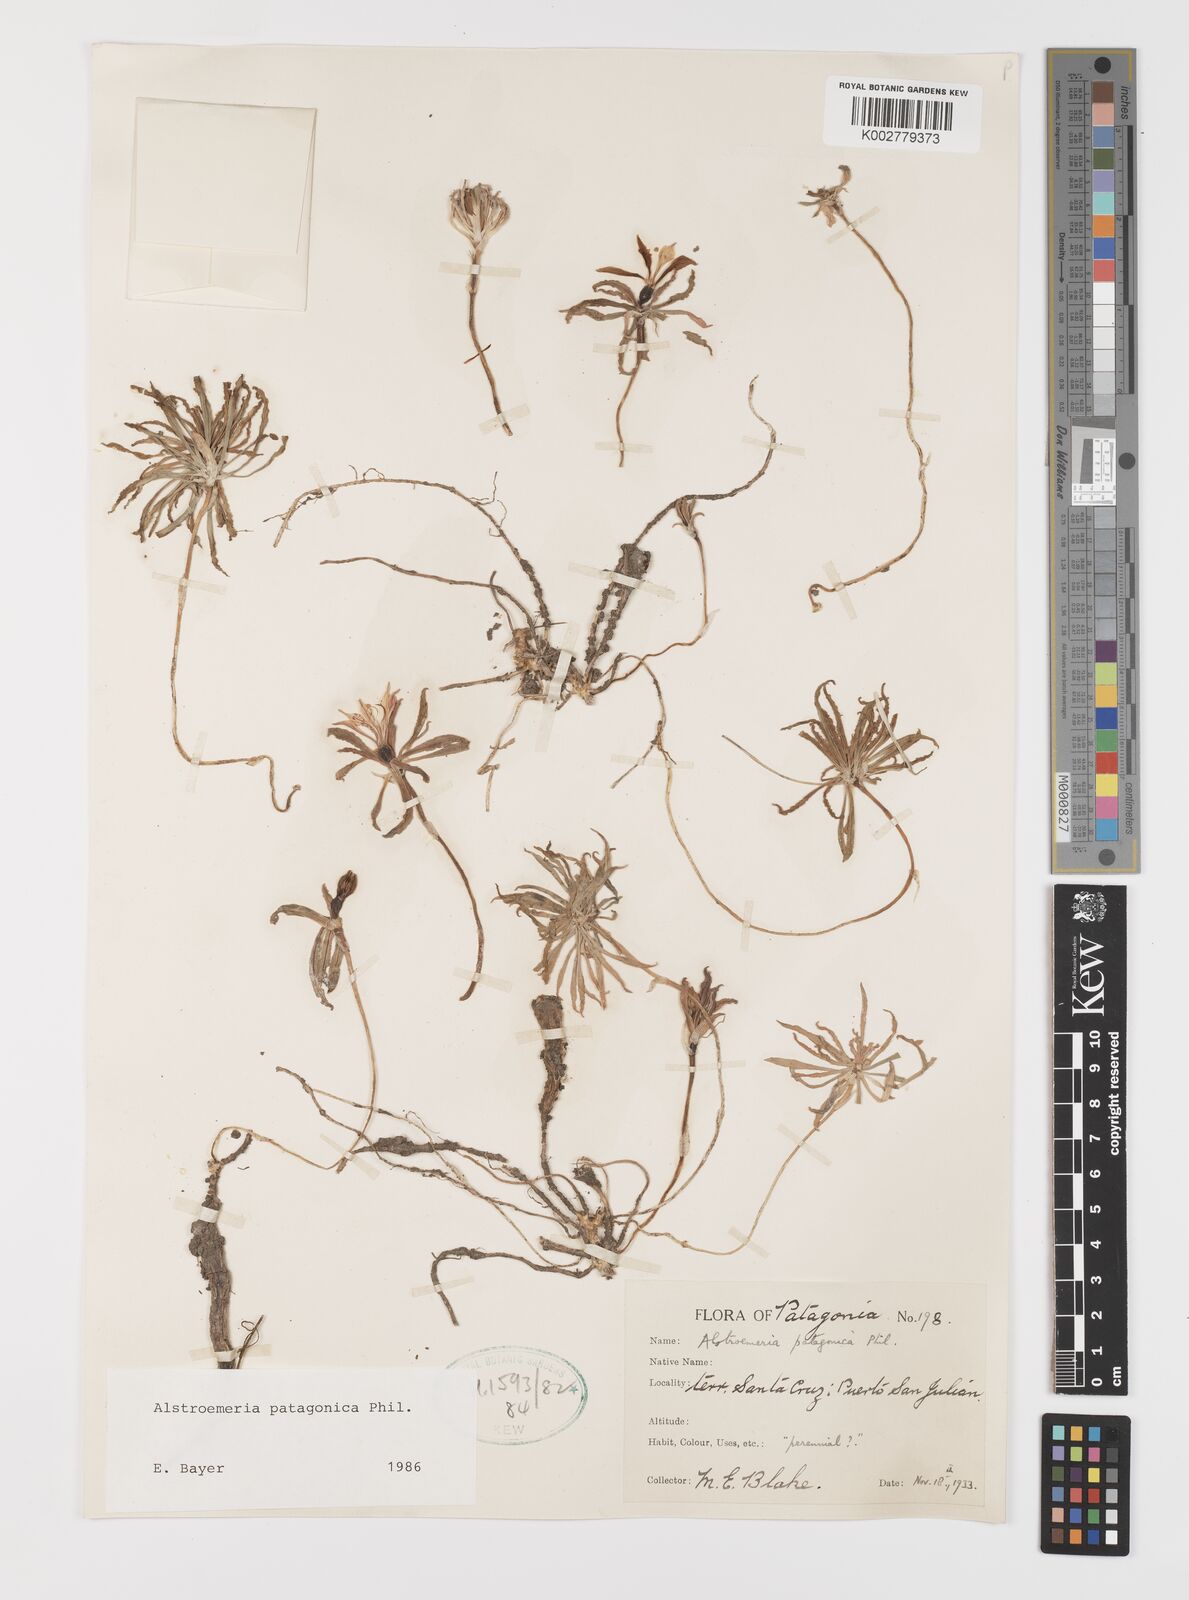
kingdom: Plantae
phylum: Tracheophyta
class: Liliopsida
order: Liliales
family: Alstroemeriaceae
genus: Alstroemeria
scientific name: Alstroemeria patagonica
